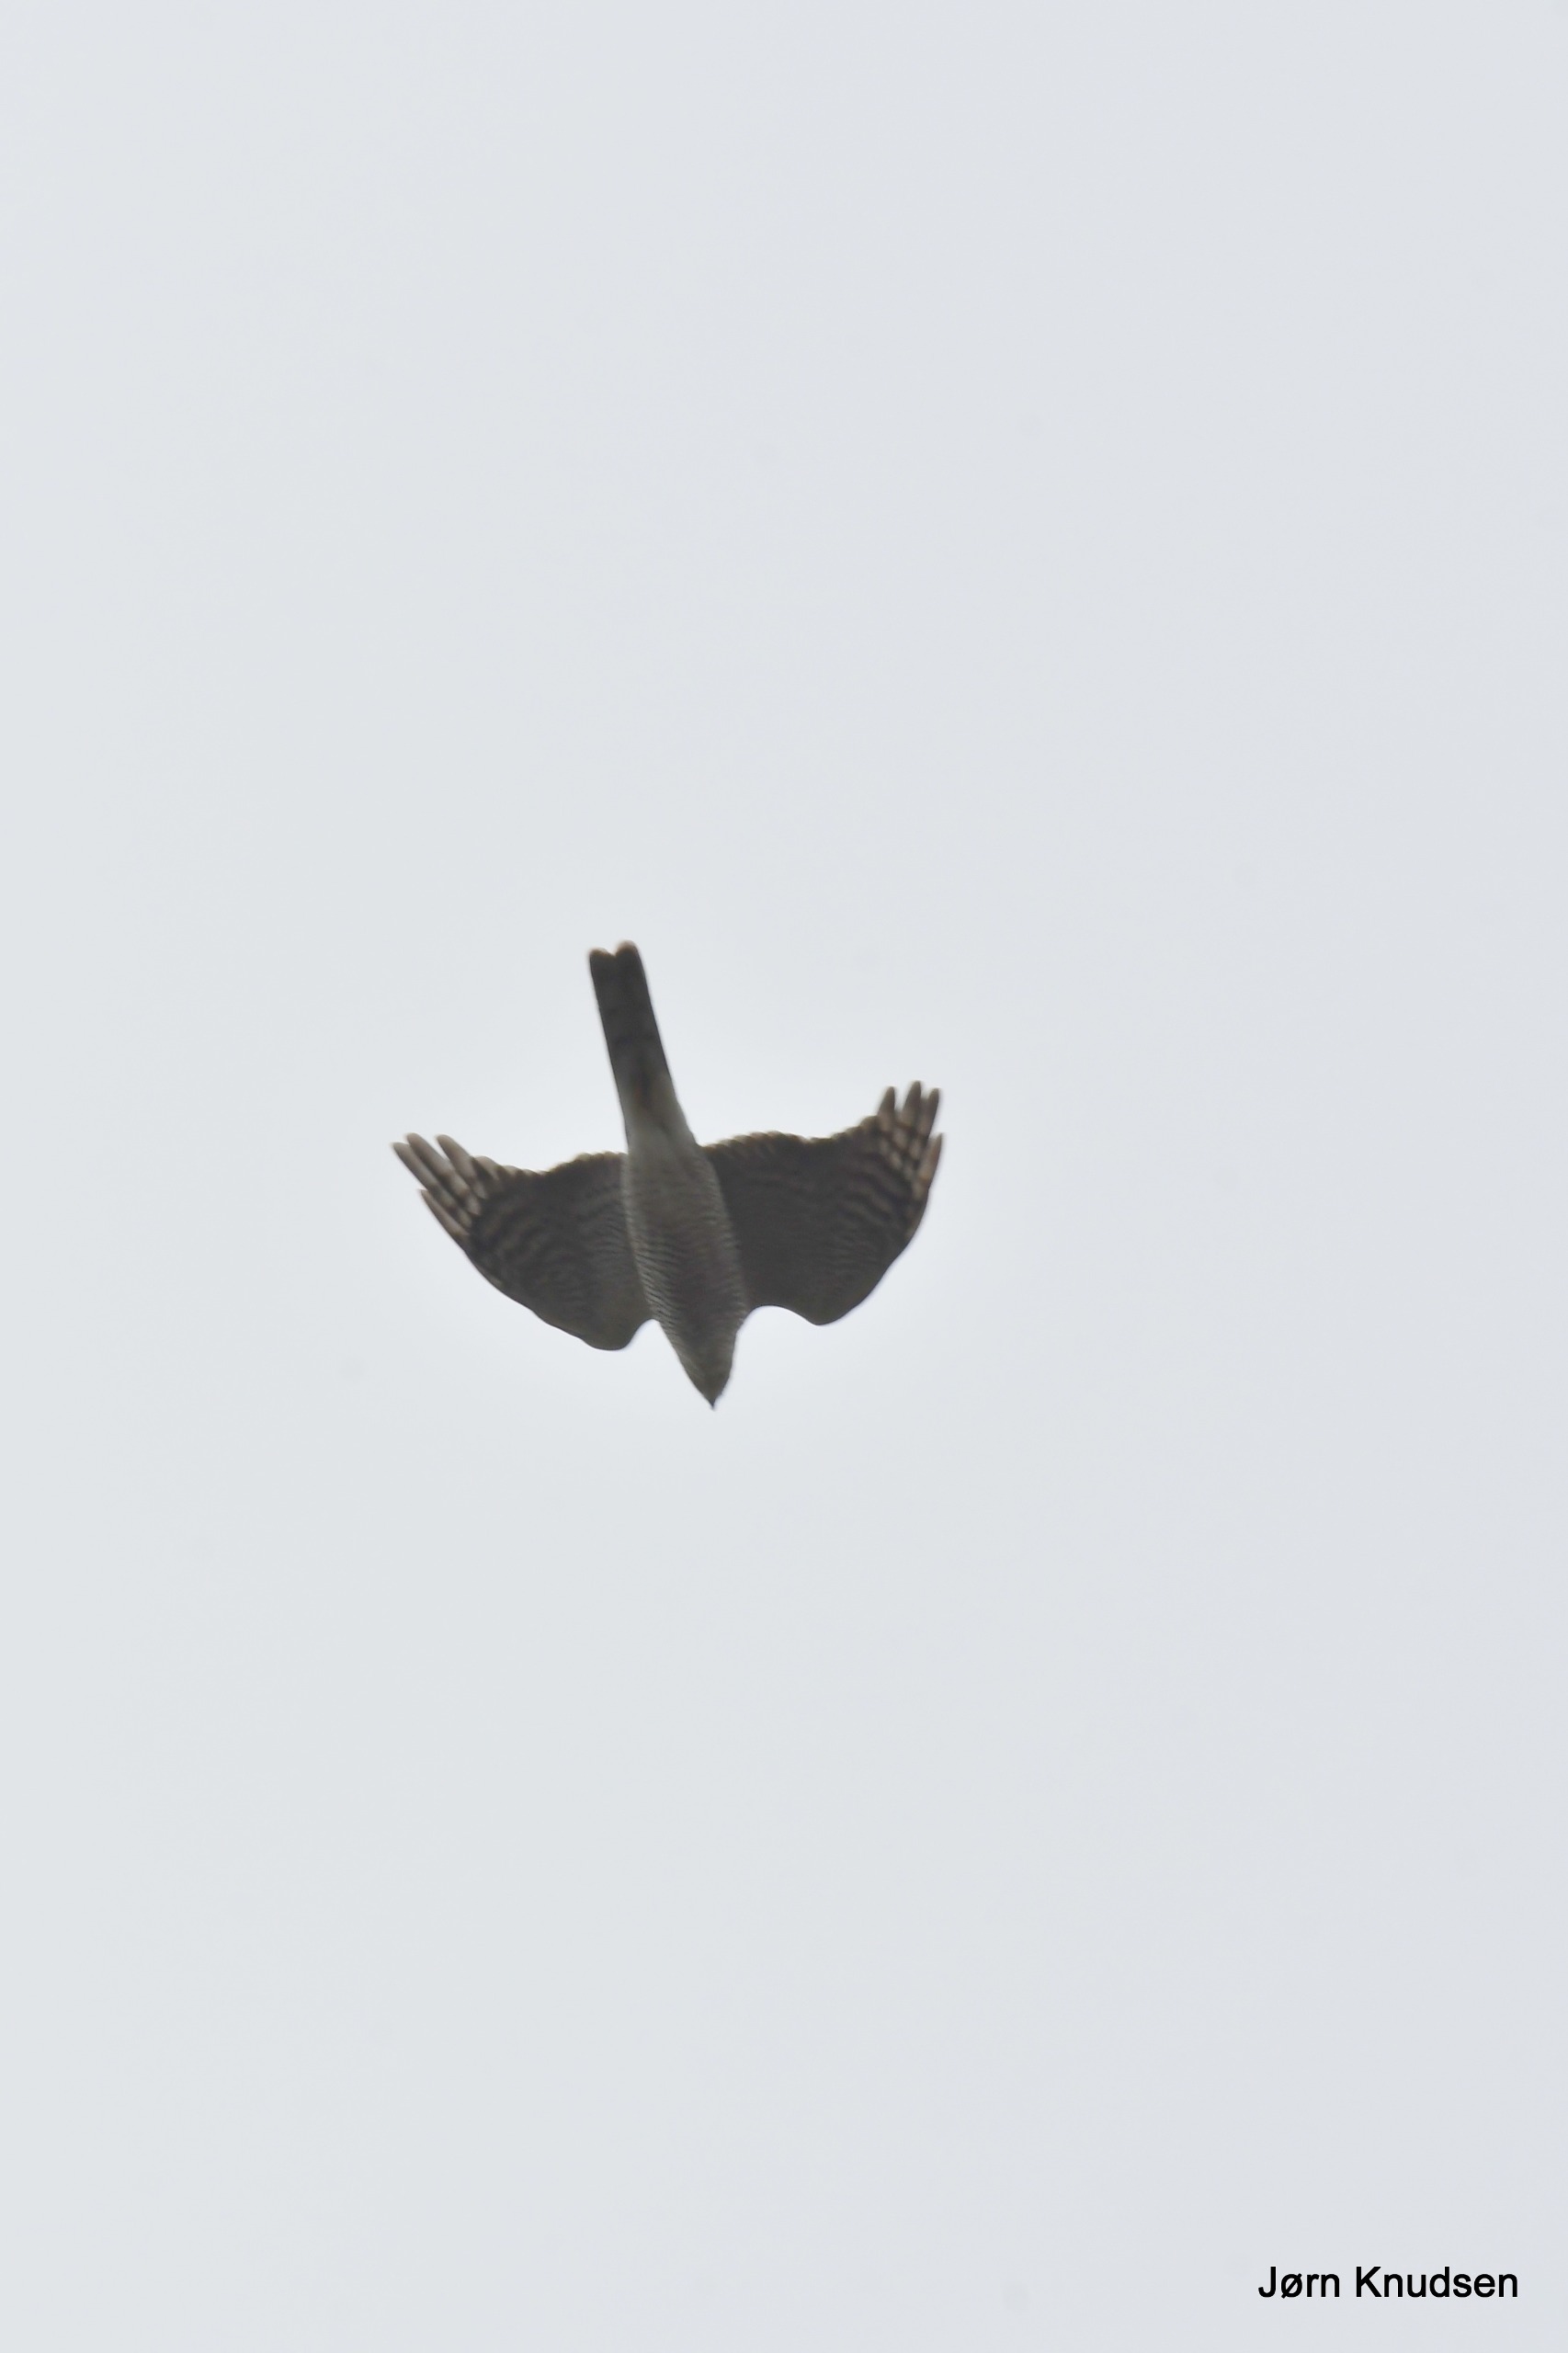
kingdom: Animalia
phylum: Chordata
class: Aves
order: Accipitriformes
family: Accipitridae
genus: Accipiter
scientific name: Accipiter nisus
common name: Spurvehøg
